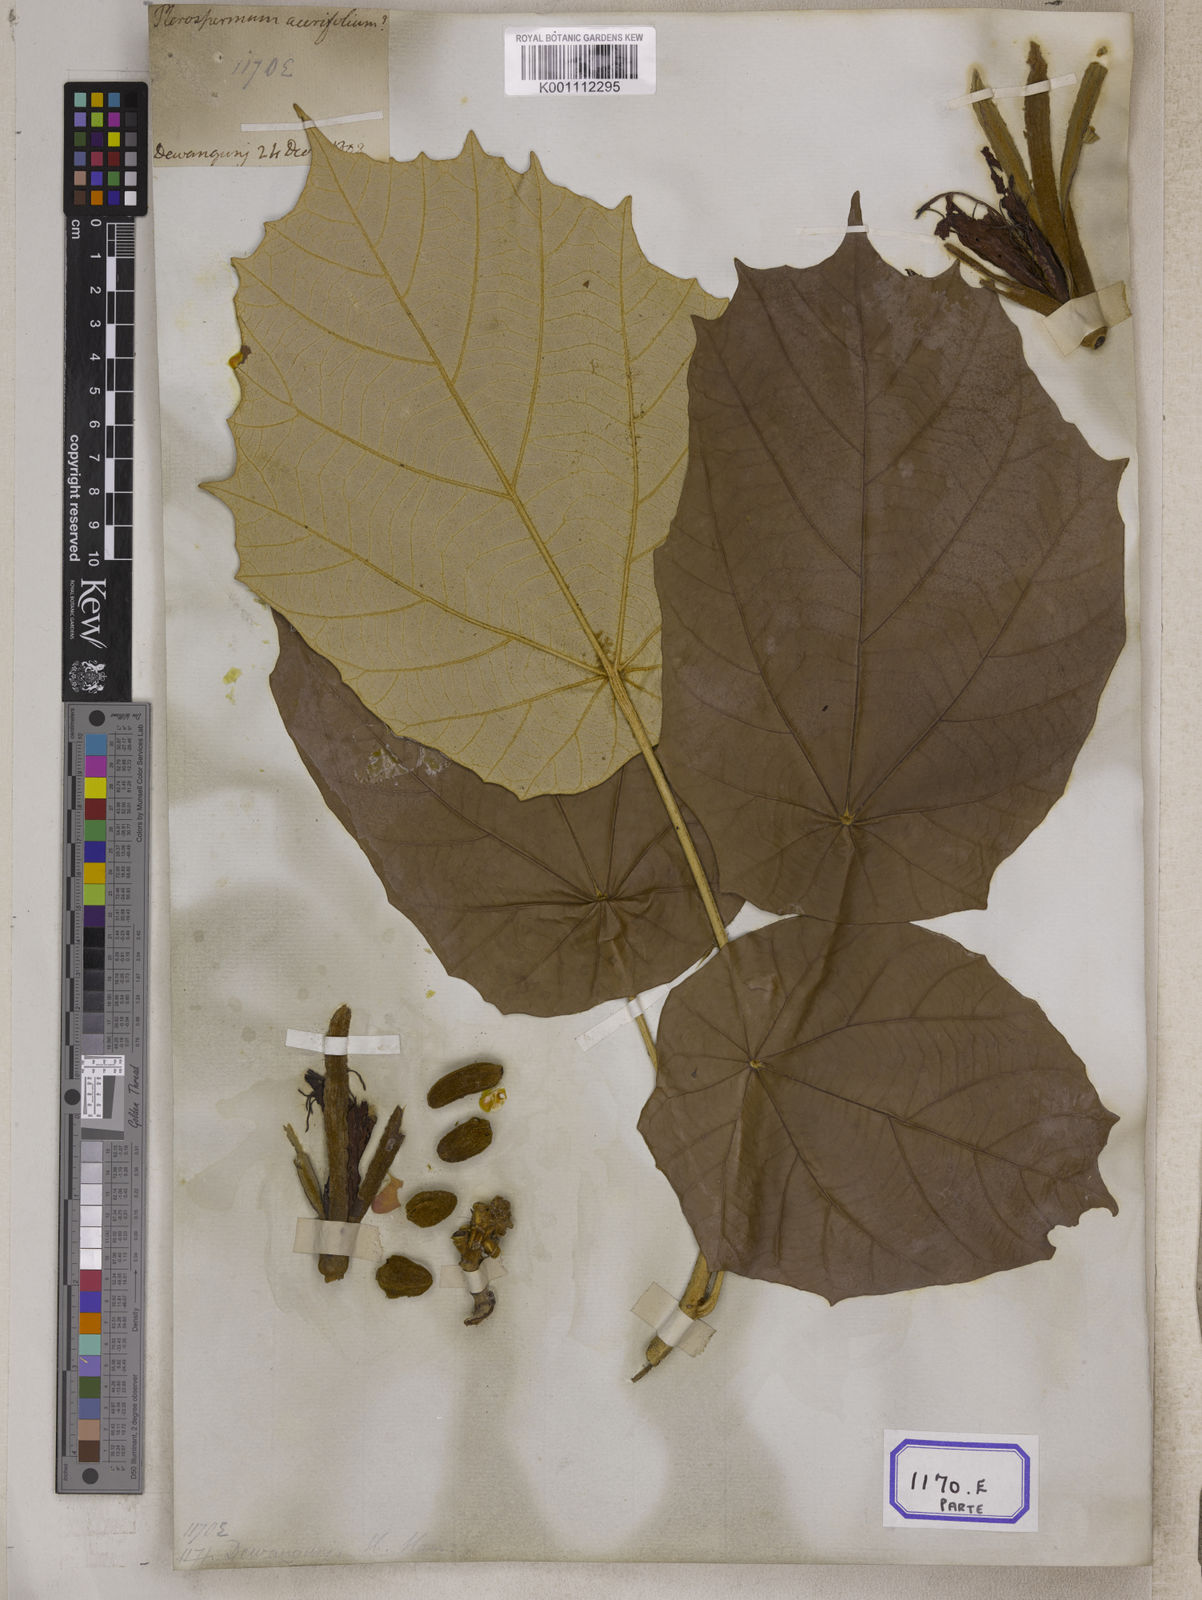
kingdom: Plantae
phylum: Tracheophyta
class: Magnoliopsida
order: Malvales
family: Malvaceae
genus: Pterospermum
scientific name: Pterospermum
